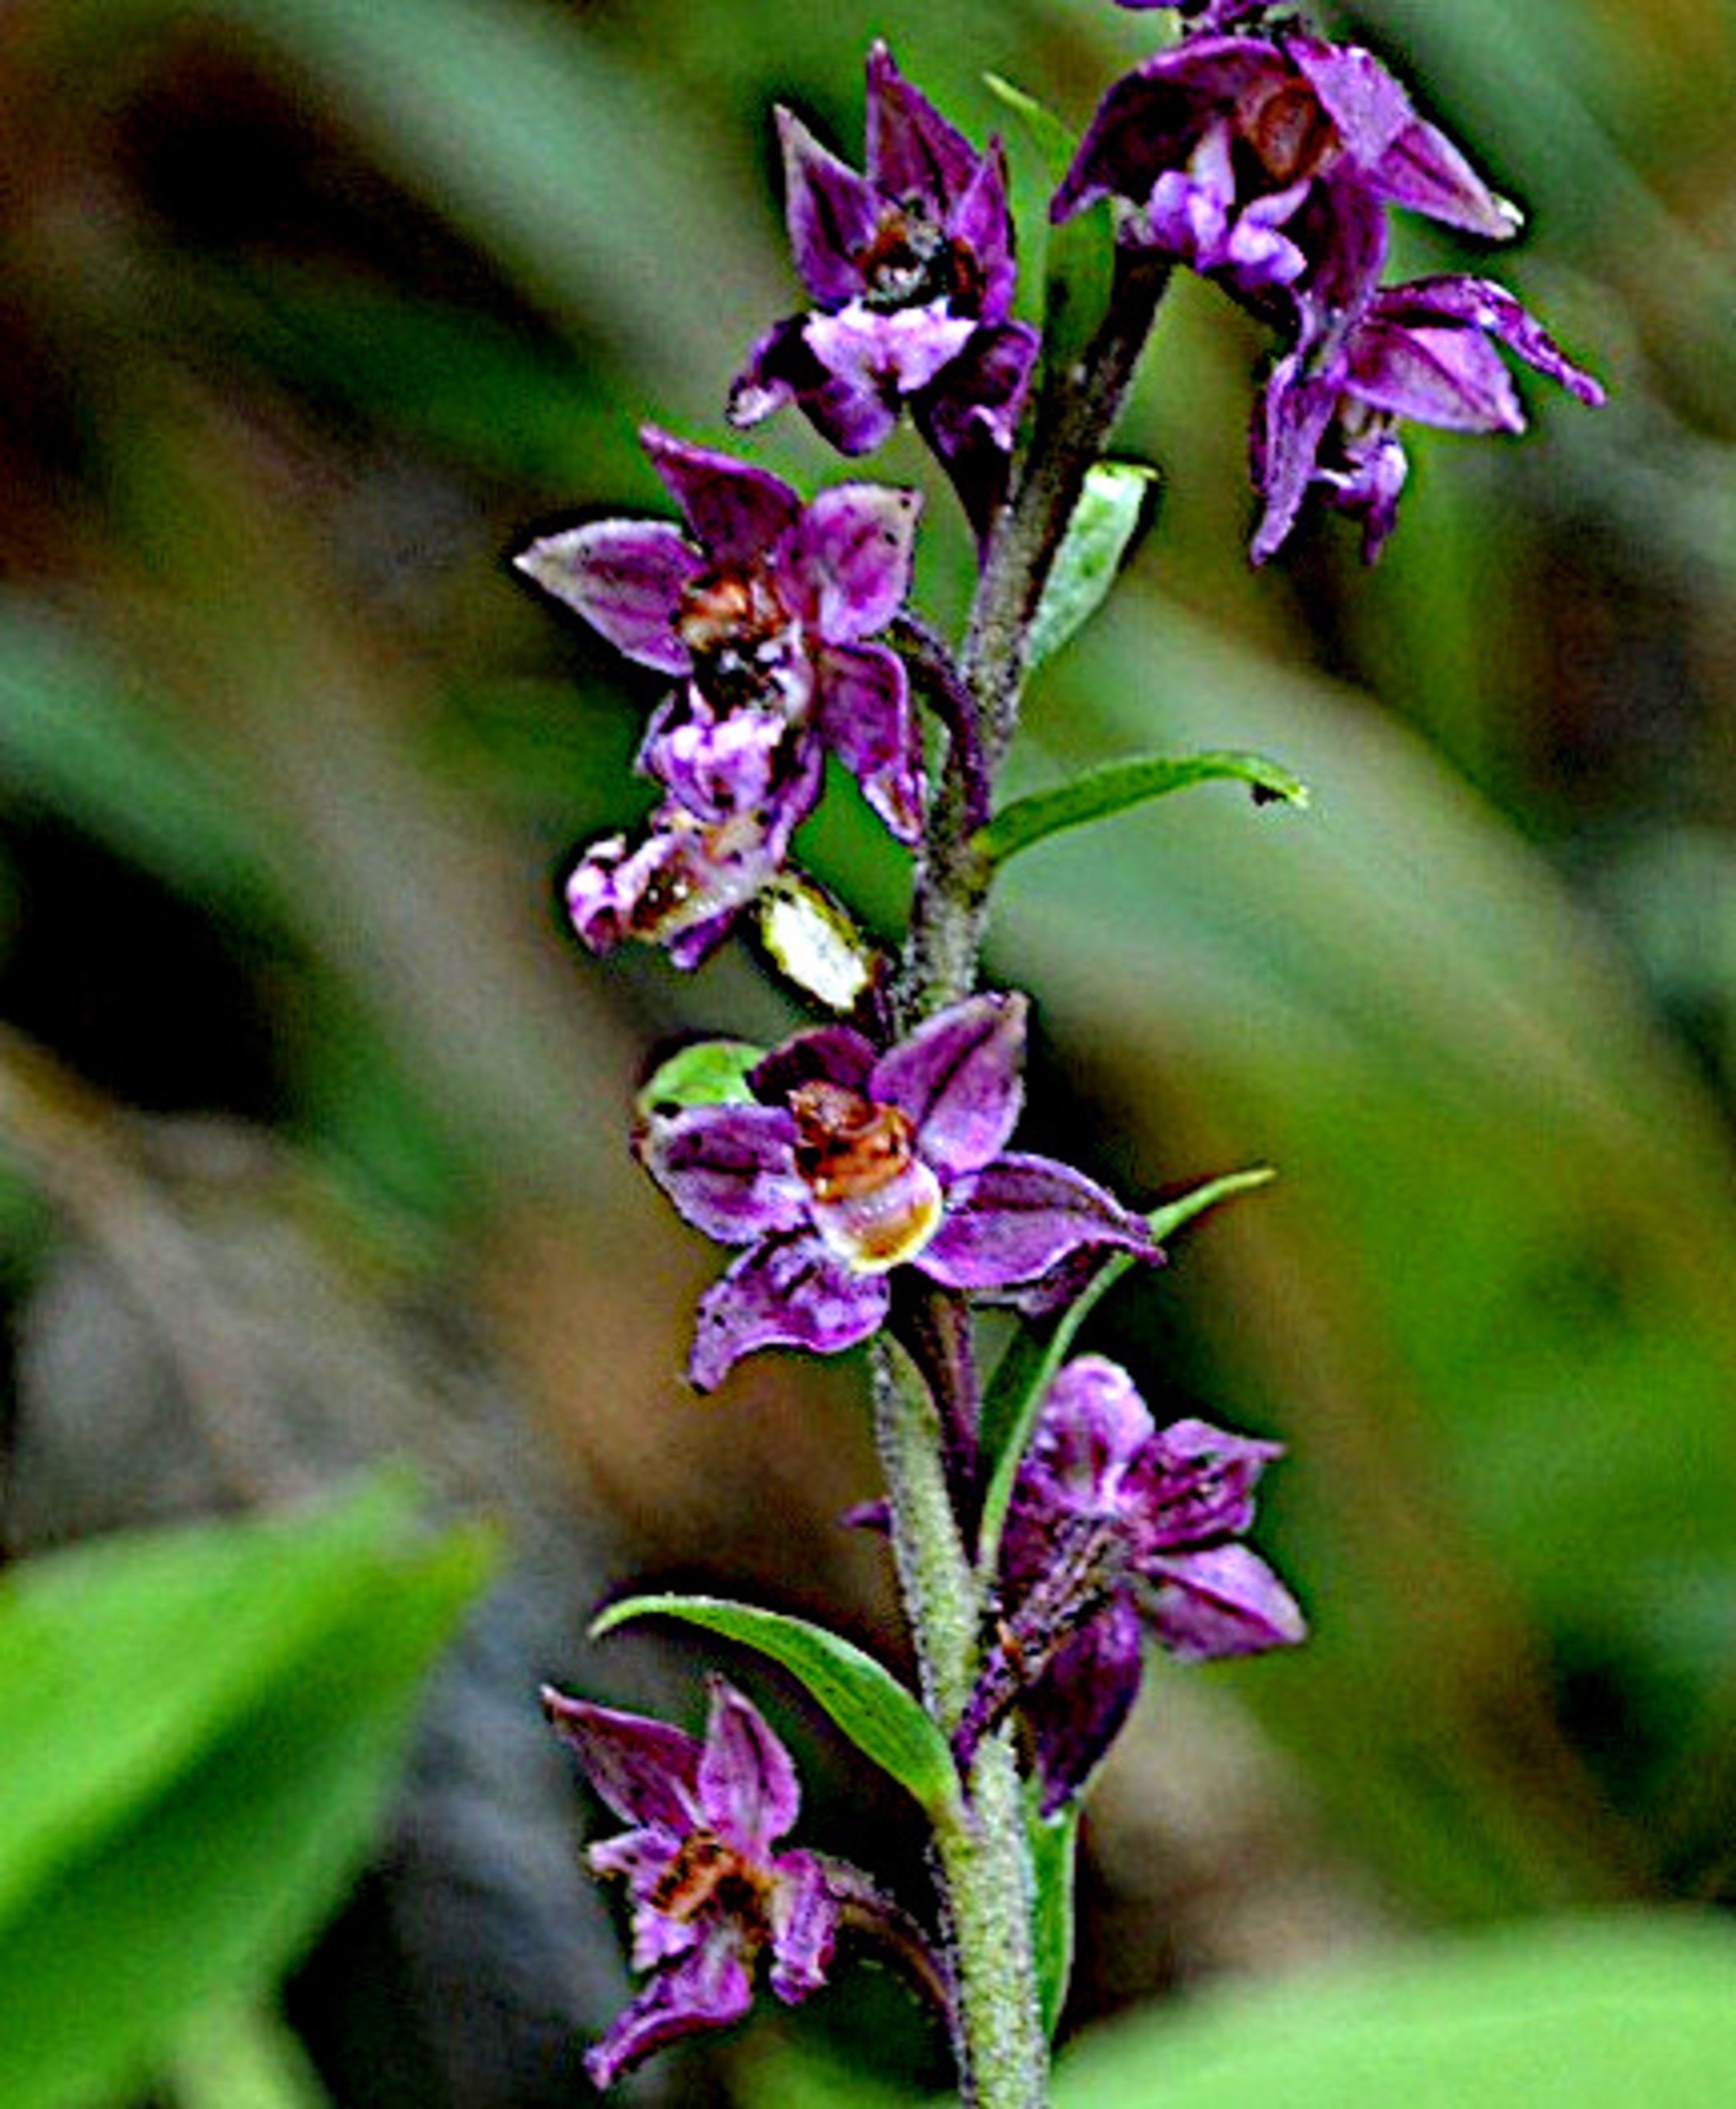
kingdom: Plantae
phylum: Tracheophyta
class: Liliopsida
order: Asparagales
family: Orchidaceae
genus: Epipactis
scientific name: Epipactis atrorubens
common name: Rød hullæbe
